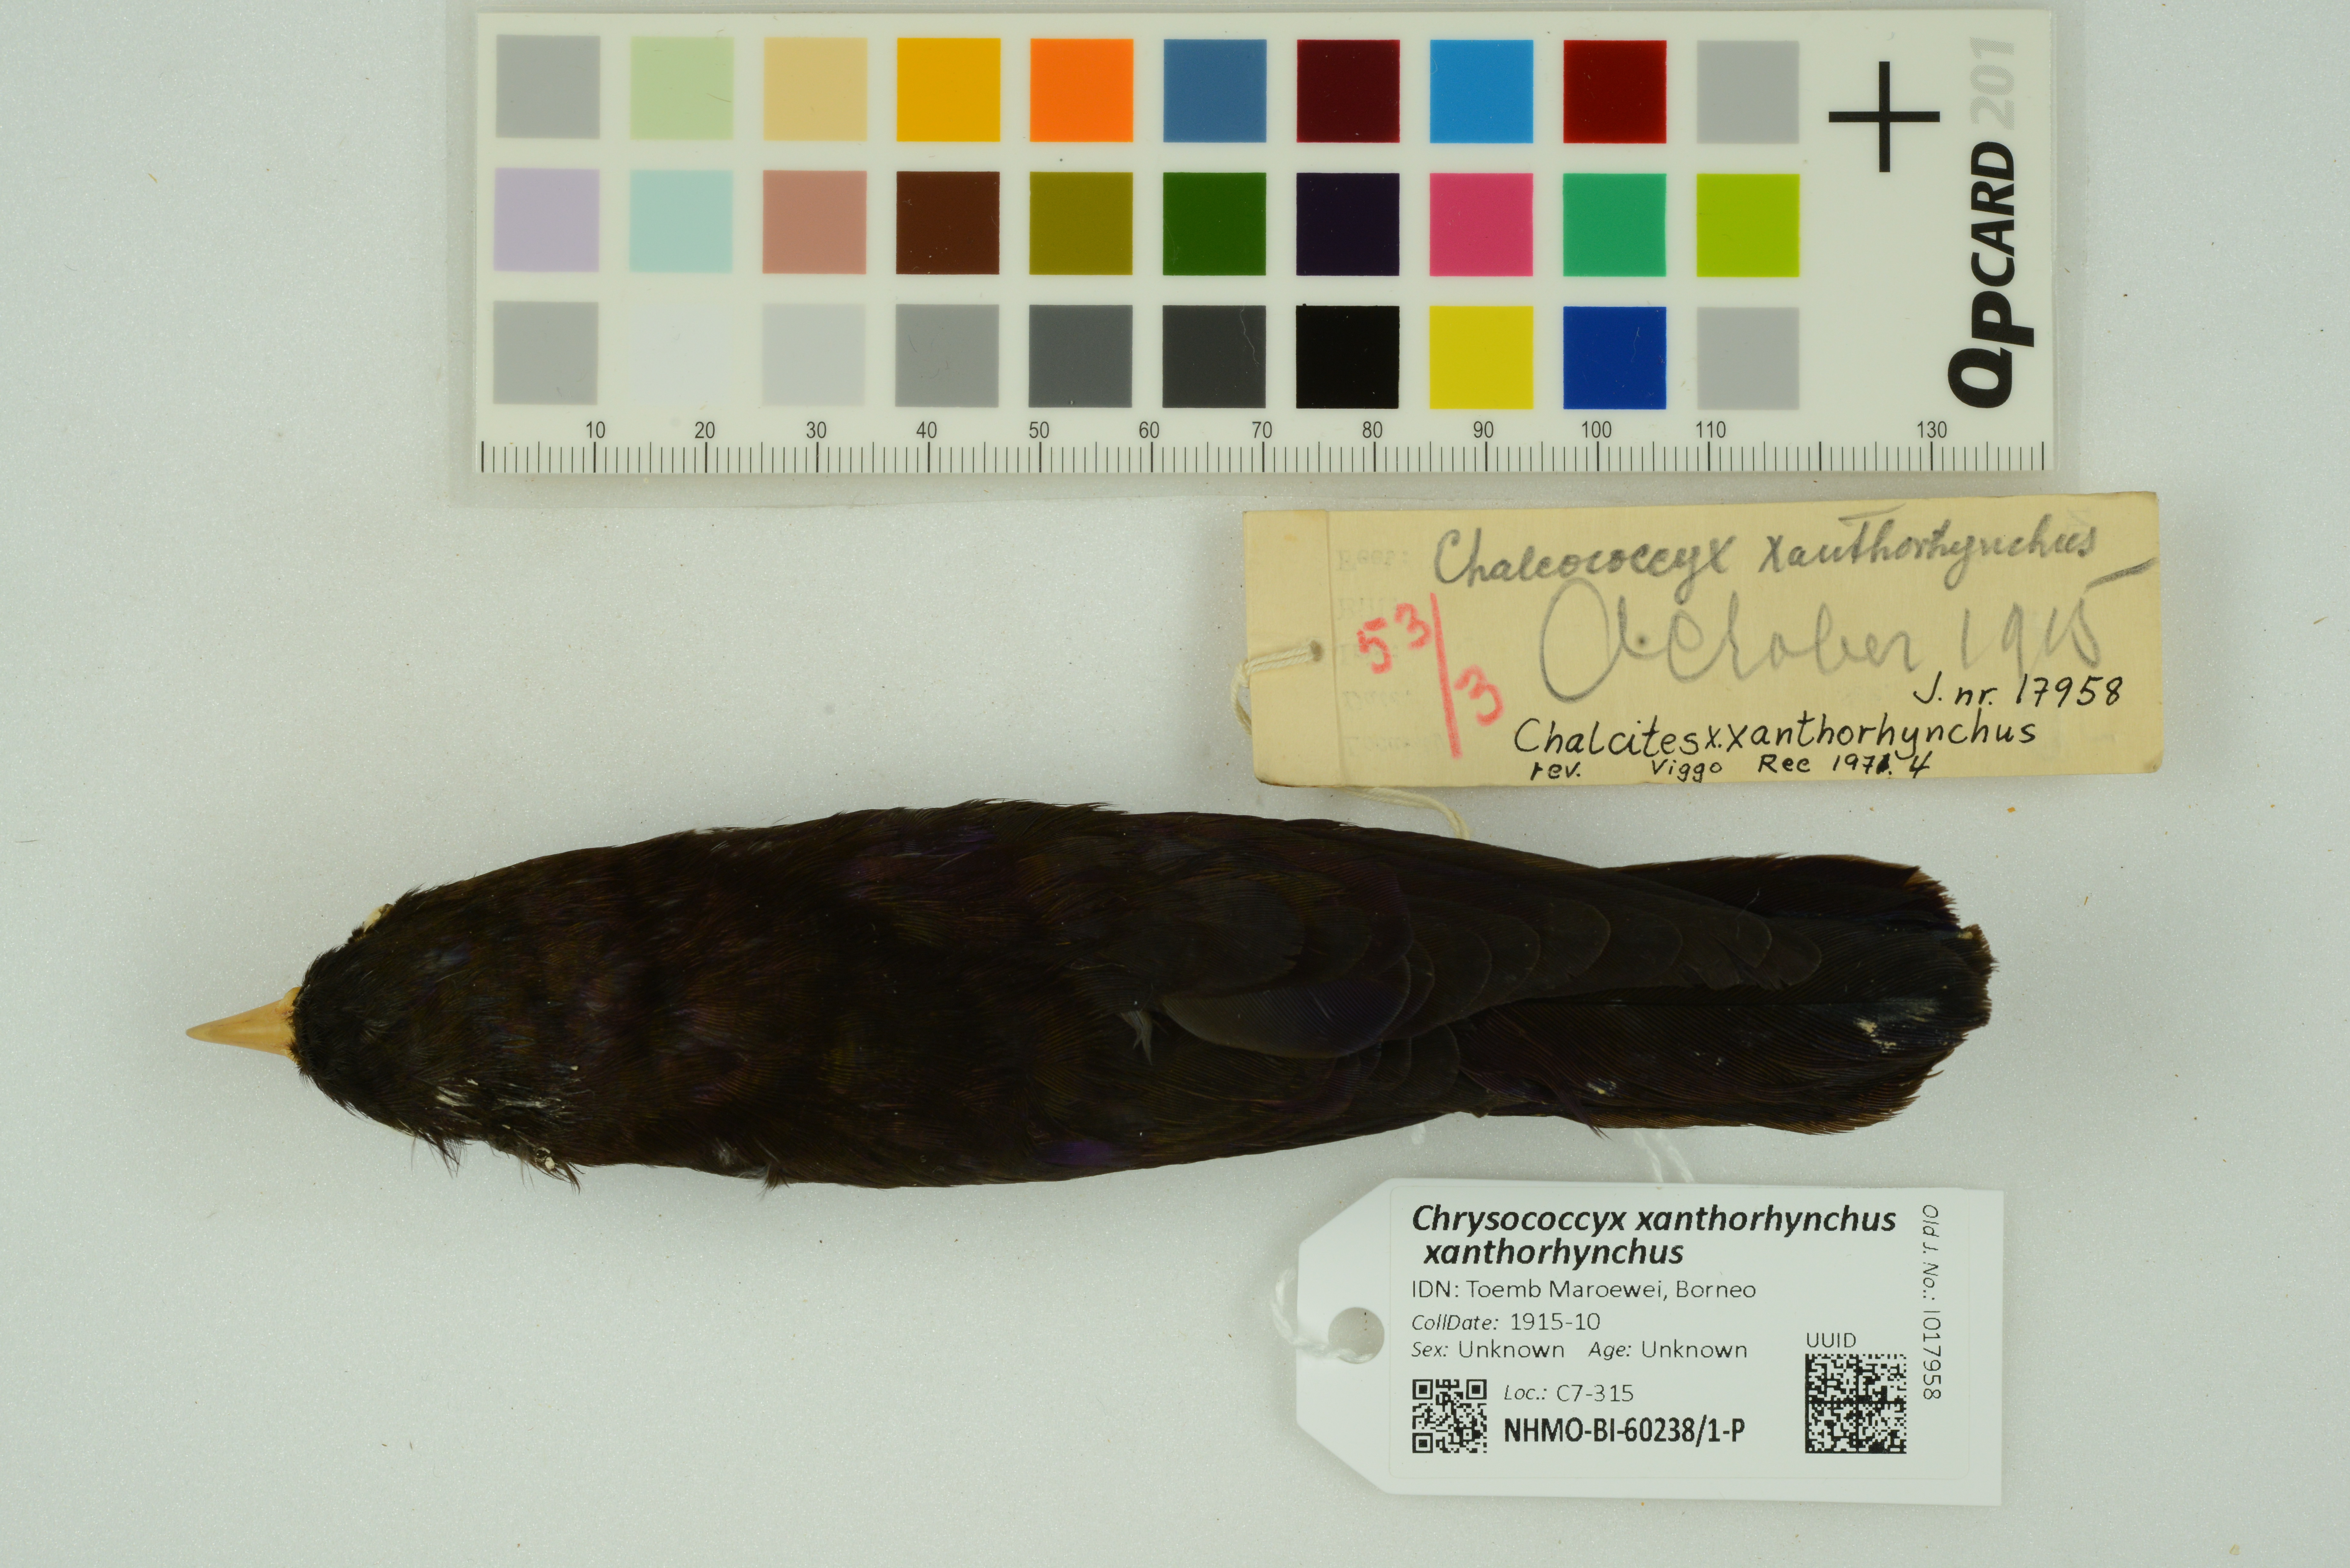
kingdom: Animalia
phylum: Chordata
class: Aves
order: Cuculiformes
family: Cuculidae
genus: Chrysococcyx
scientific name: Chrysococcyx xanthorhynchus
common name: Violet cuckoo
